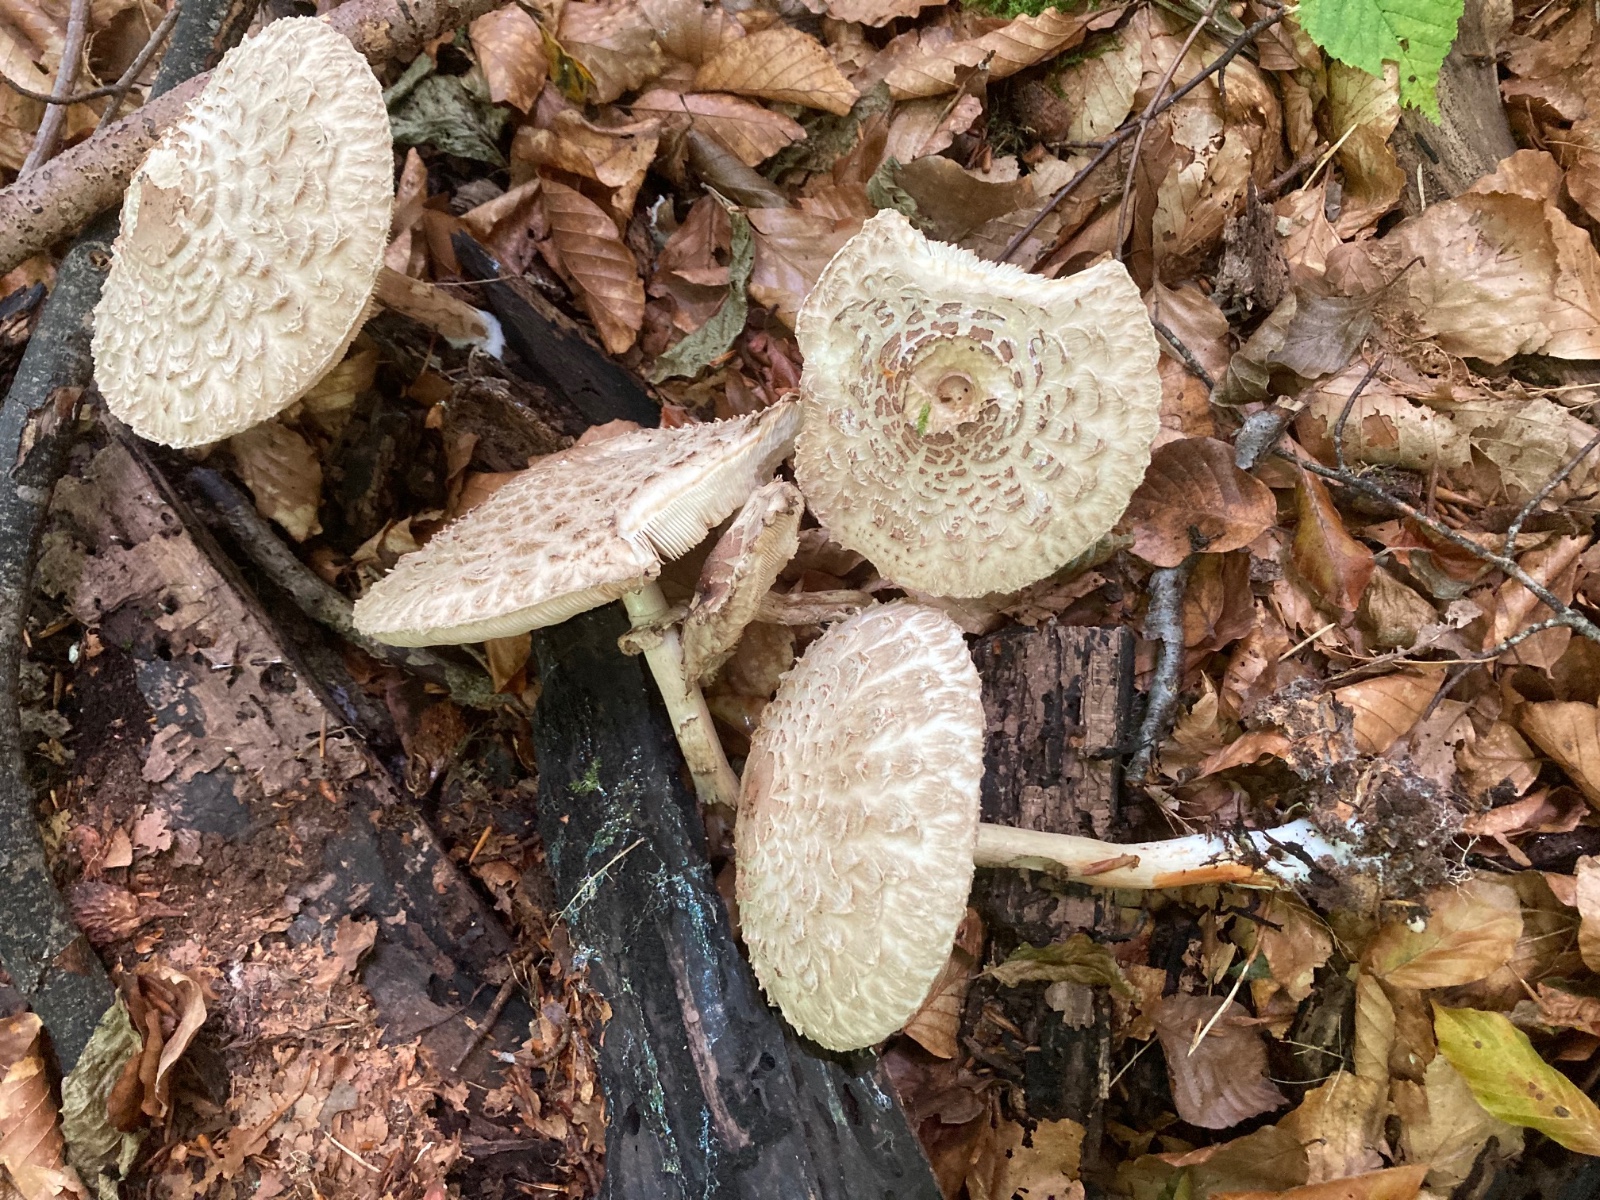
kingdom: Fungi
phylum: Basidiomycota
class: Agaricomycetes
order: Agaricales
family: Agaricaceae
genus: Chlorophyllum
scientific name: Chlorophyllum olivieri
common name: almindelig rabarberhat
